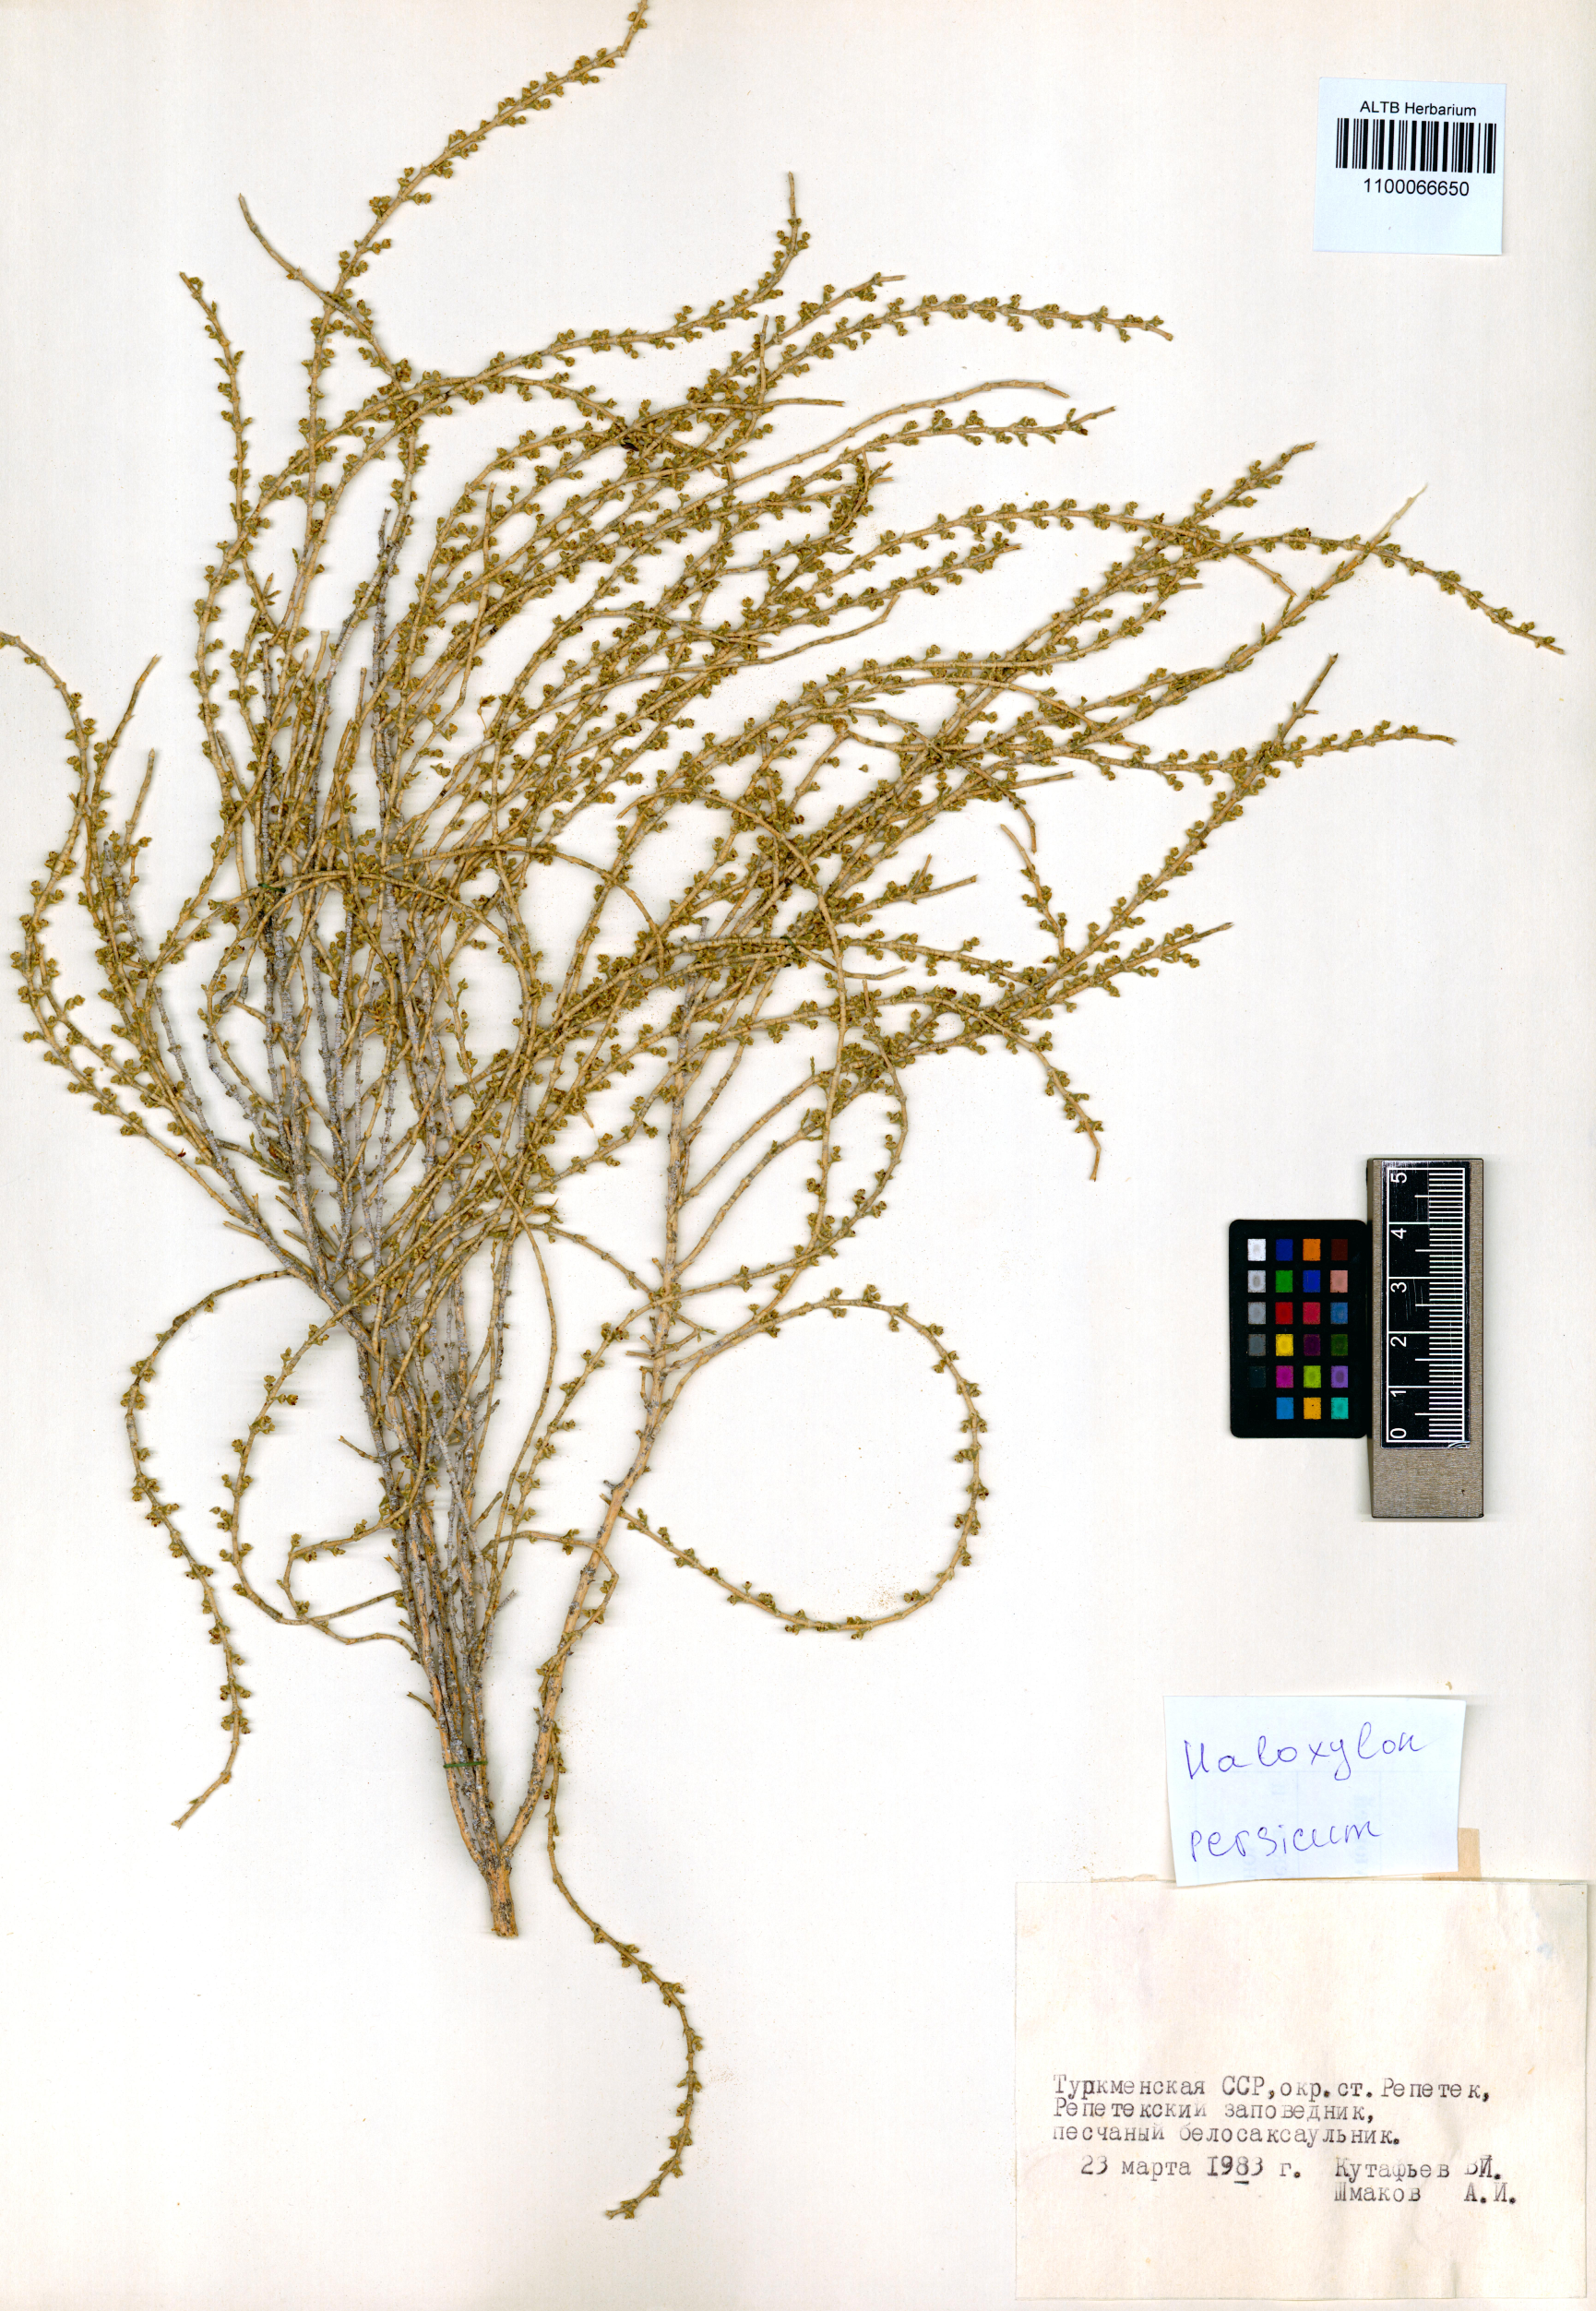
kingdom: Plantae
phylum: Tracheophyta
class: Magnoliopsida
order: Caryophyllales
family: Amaranthaceae
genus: Haloxylon
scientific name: Haloxylon persicum
